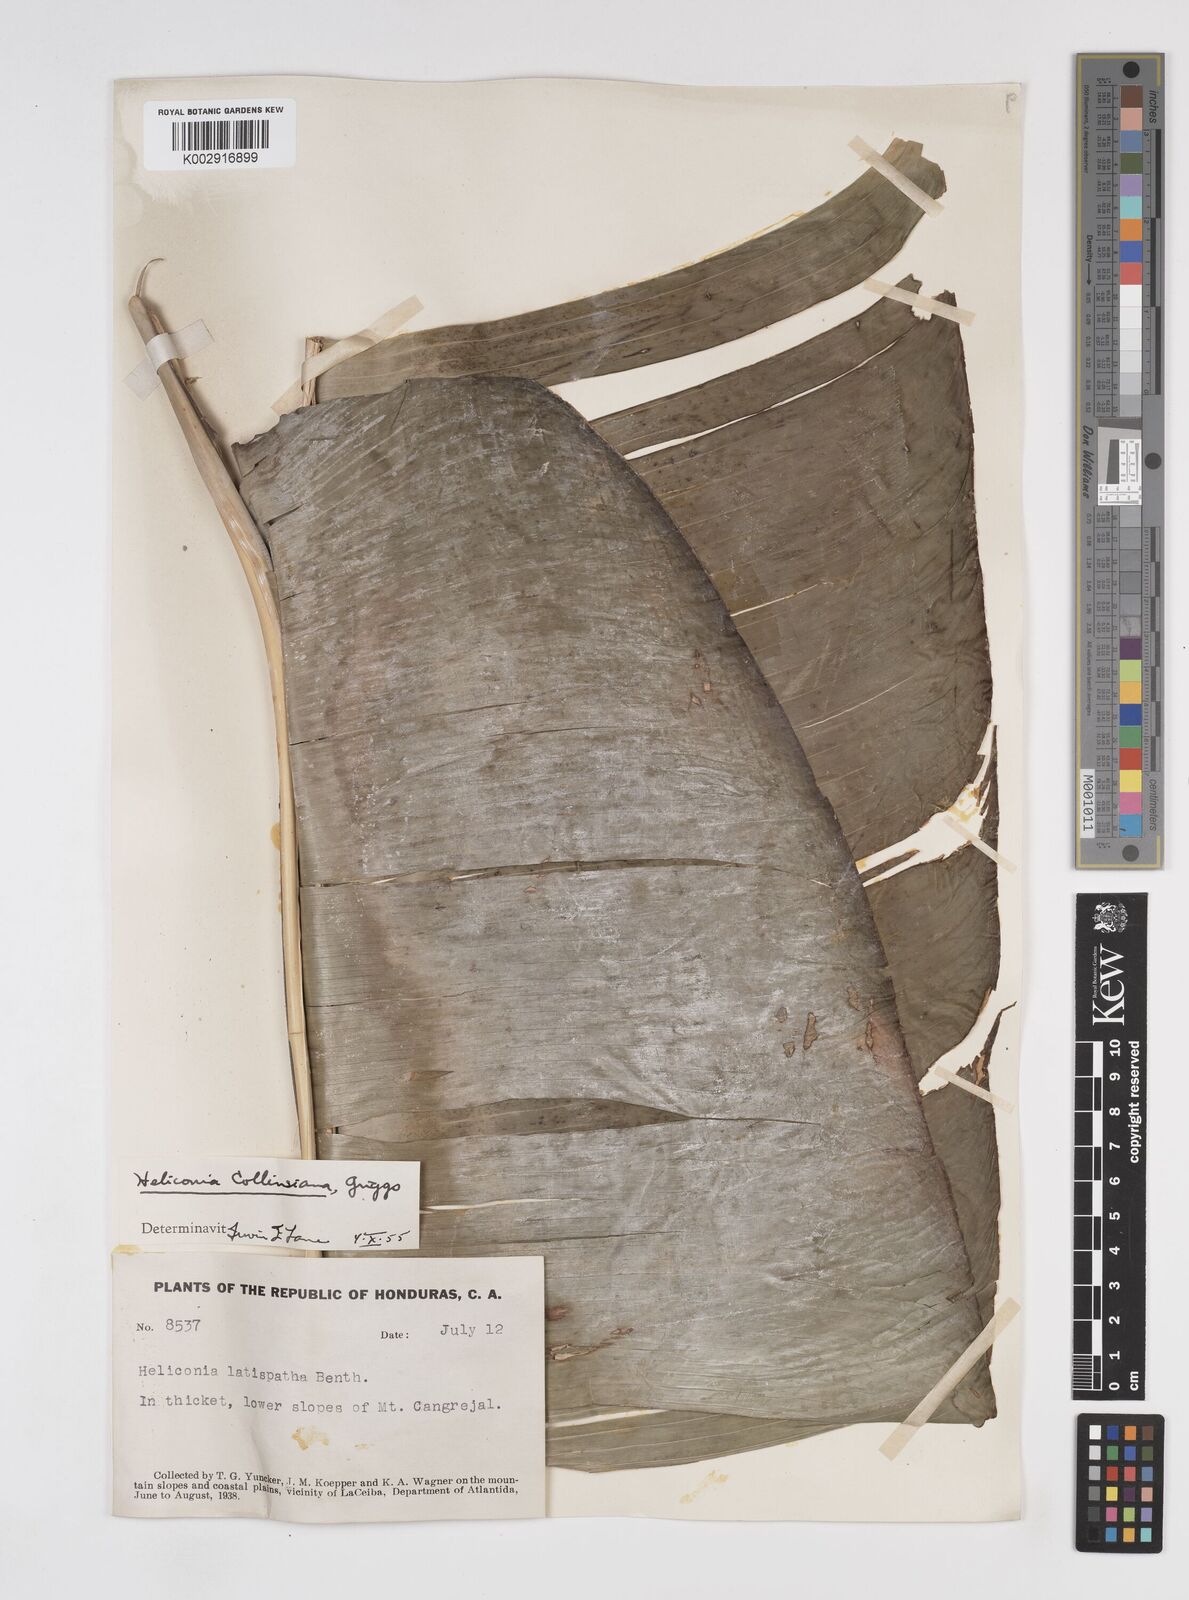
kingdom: Plantae
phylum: Tracheophyta
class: Liliopsida
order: Zingiberales
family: Heliconiaceae
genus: Heliconia
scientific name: Heliconia collinsiana
